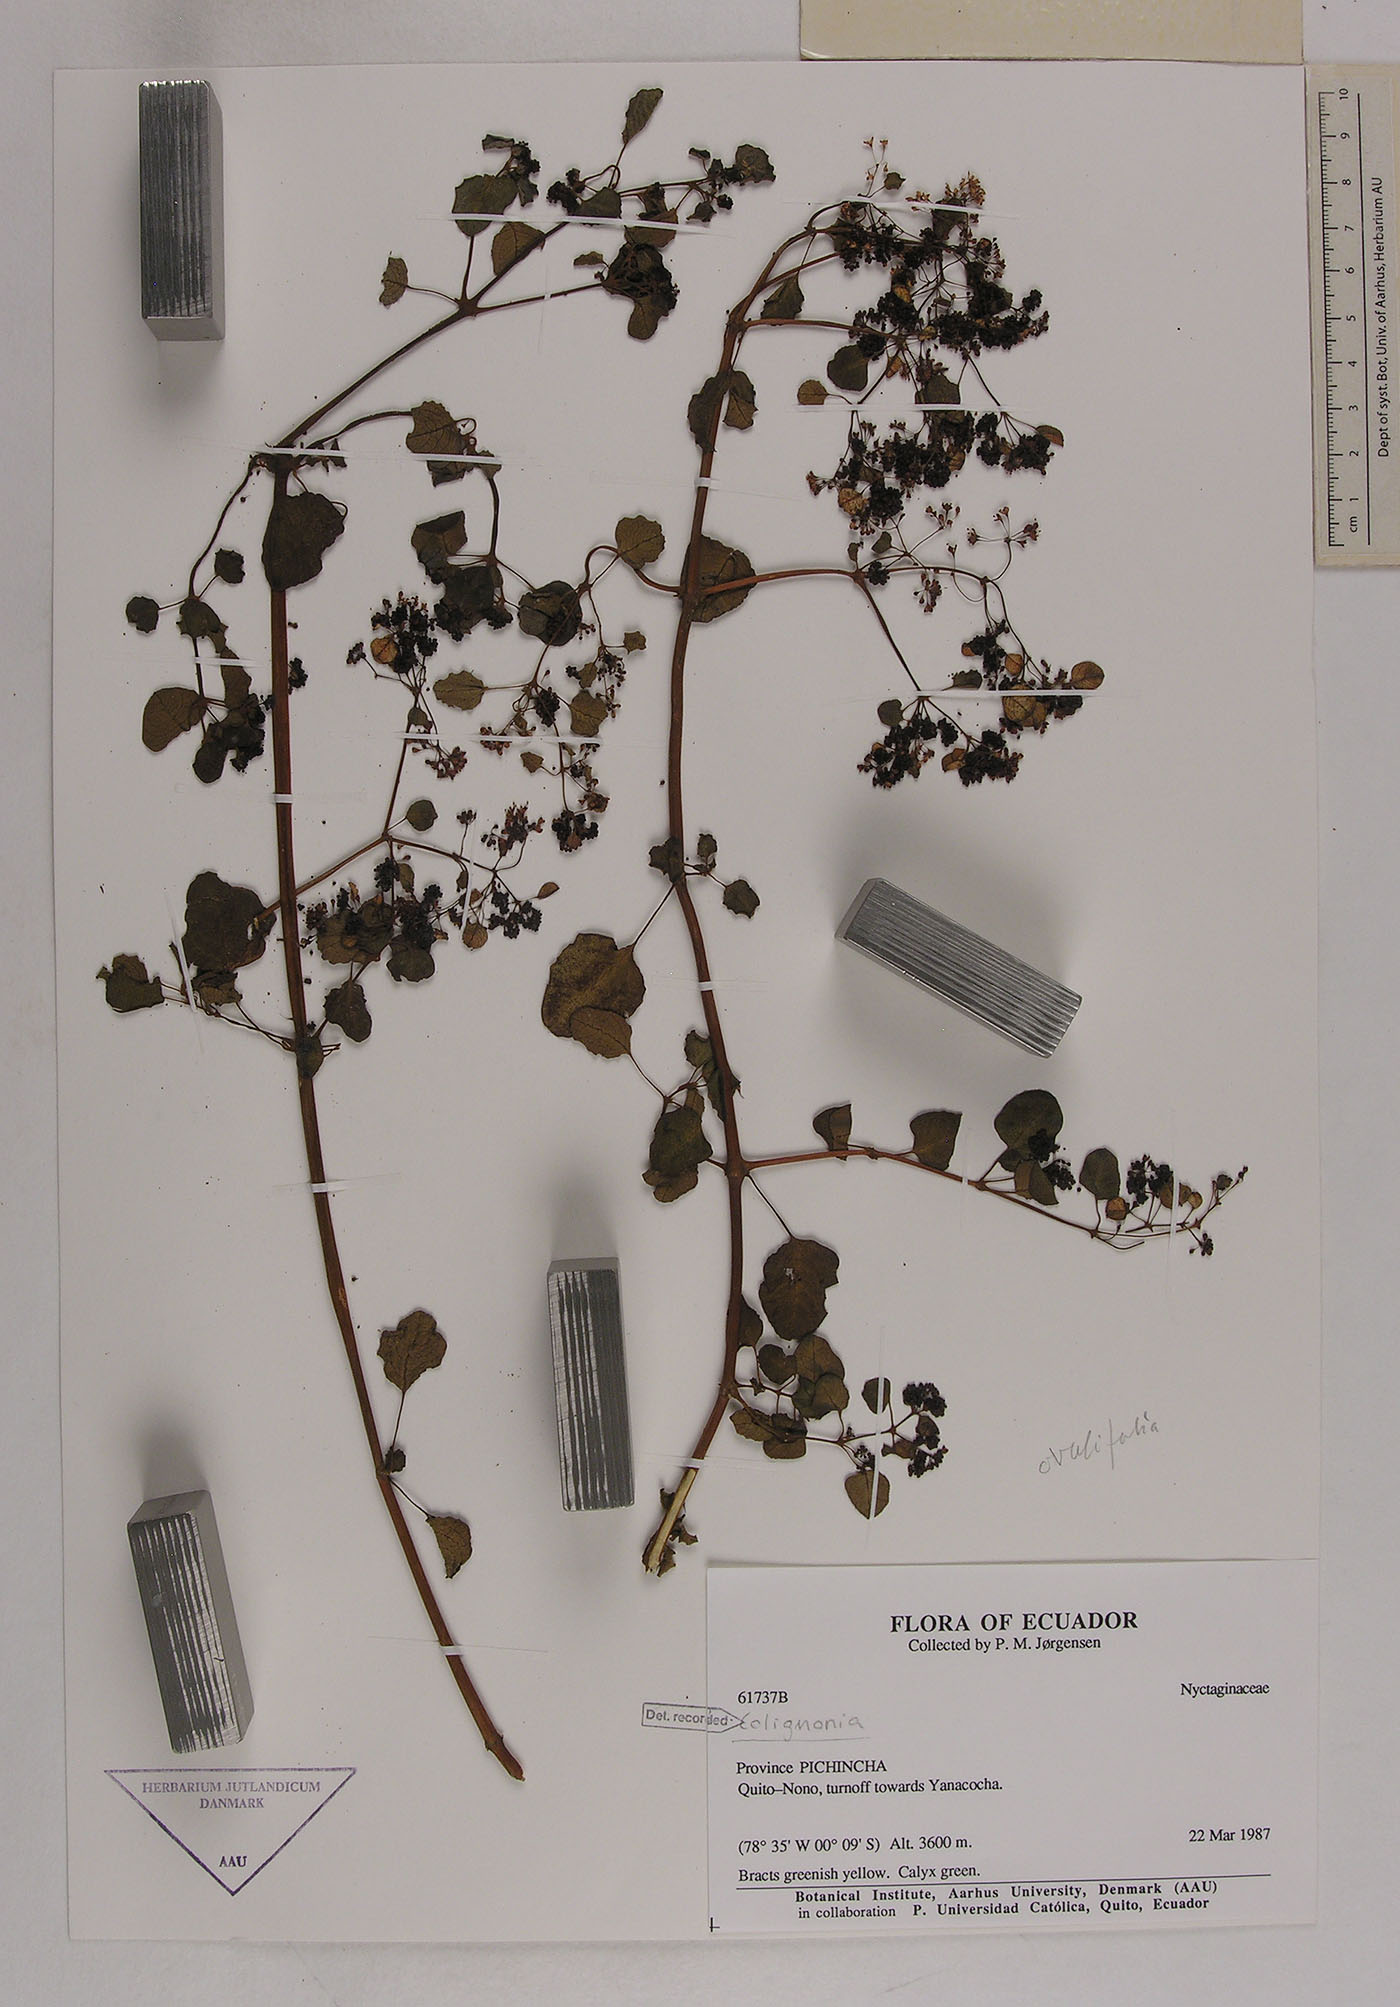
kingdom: Plantae
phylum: Tracheophyta
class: Magnoliopsida
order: Caryophyllales
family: Nyctaginaceae
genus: Colignonia
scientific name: Colignonia
